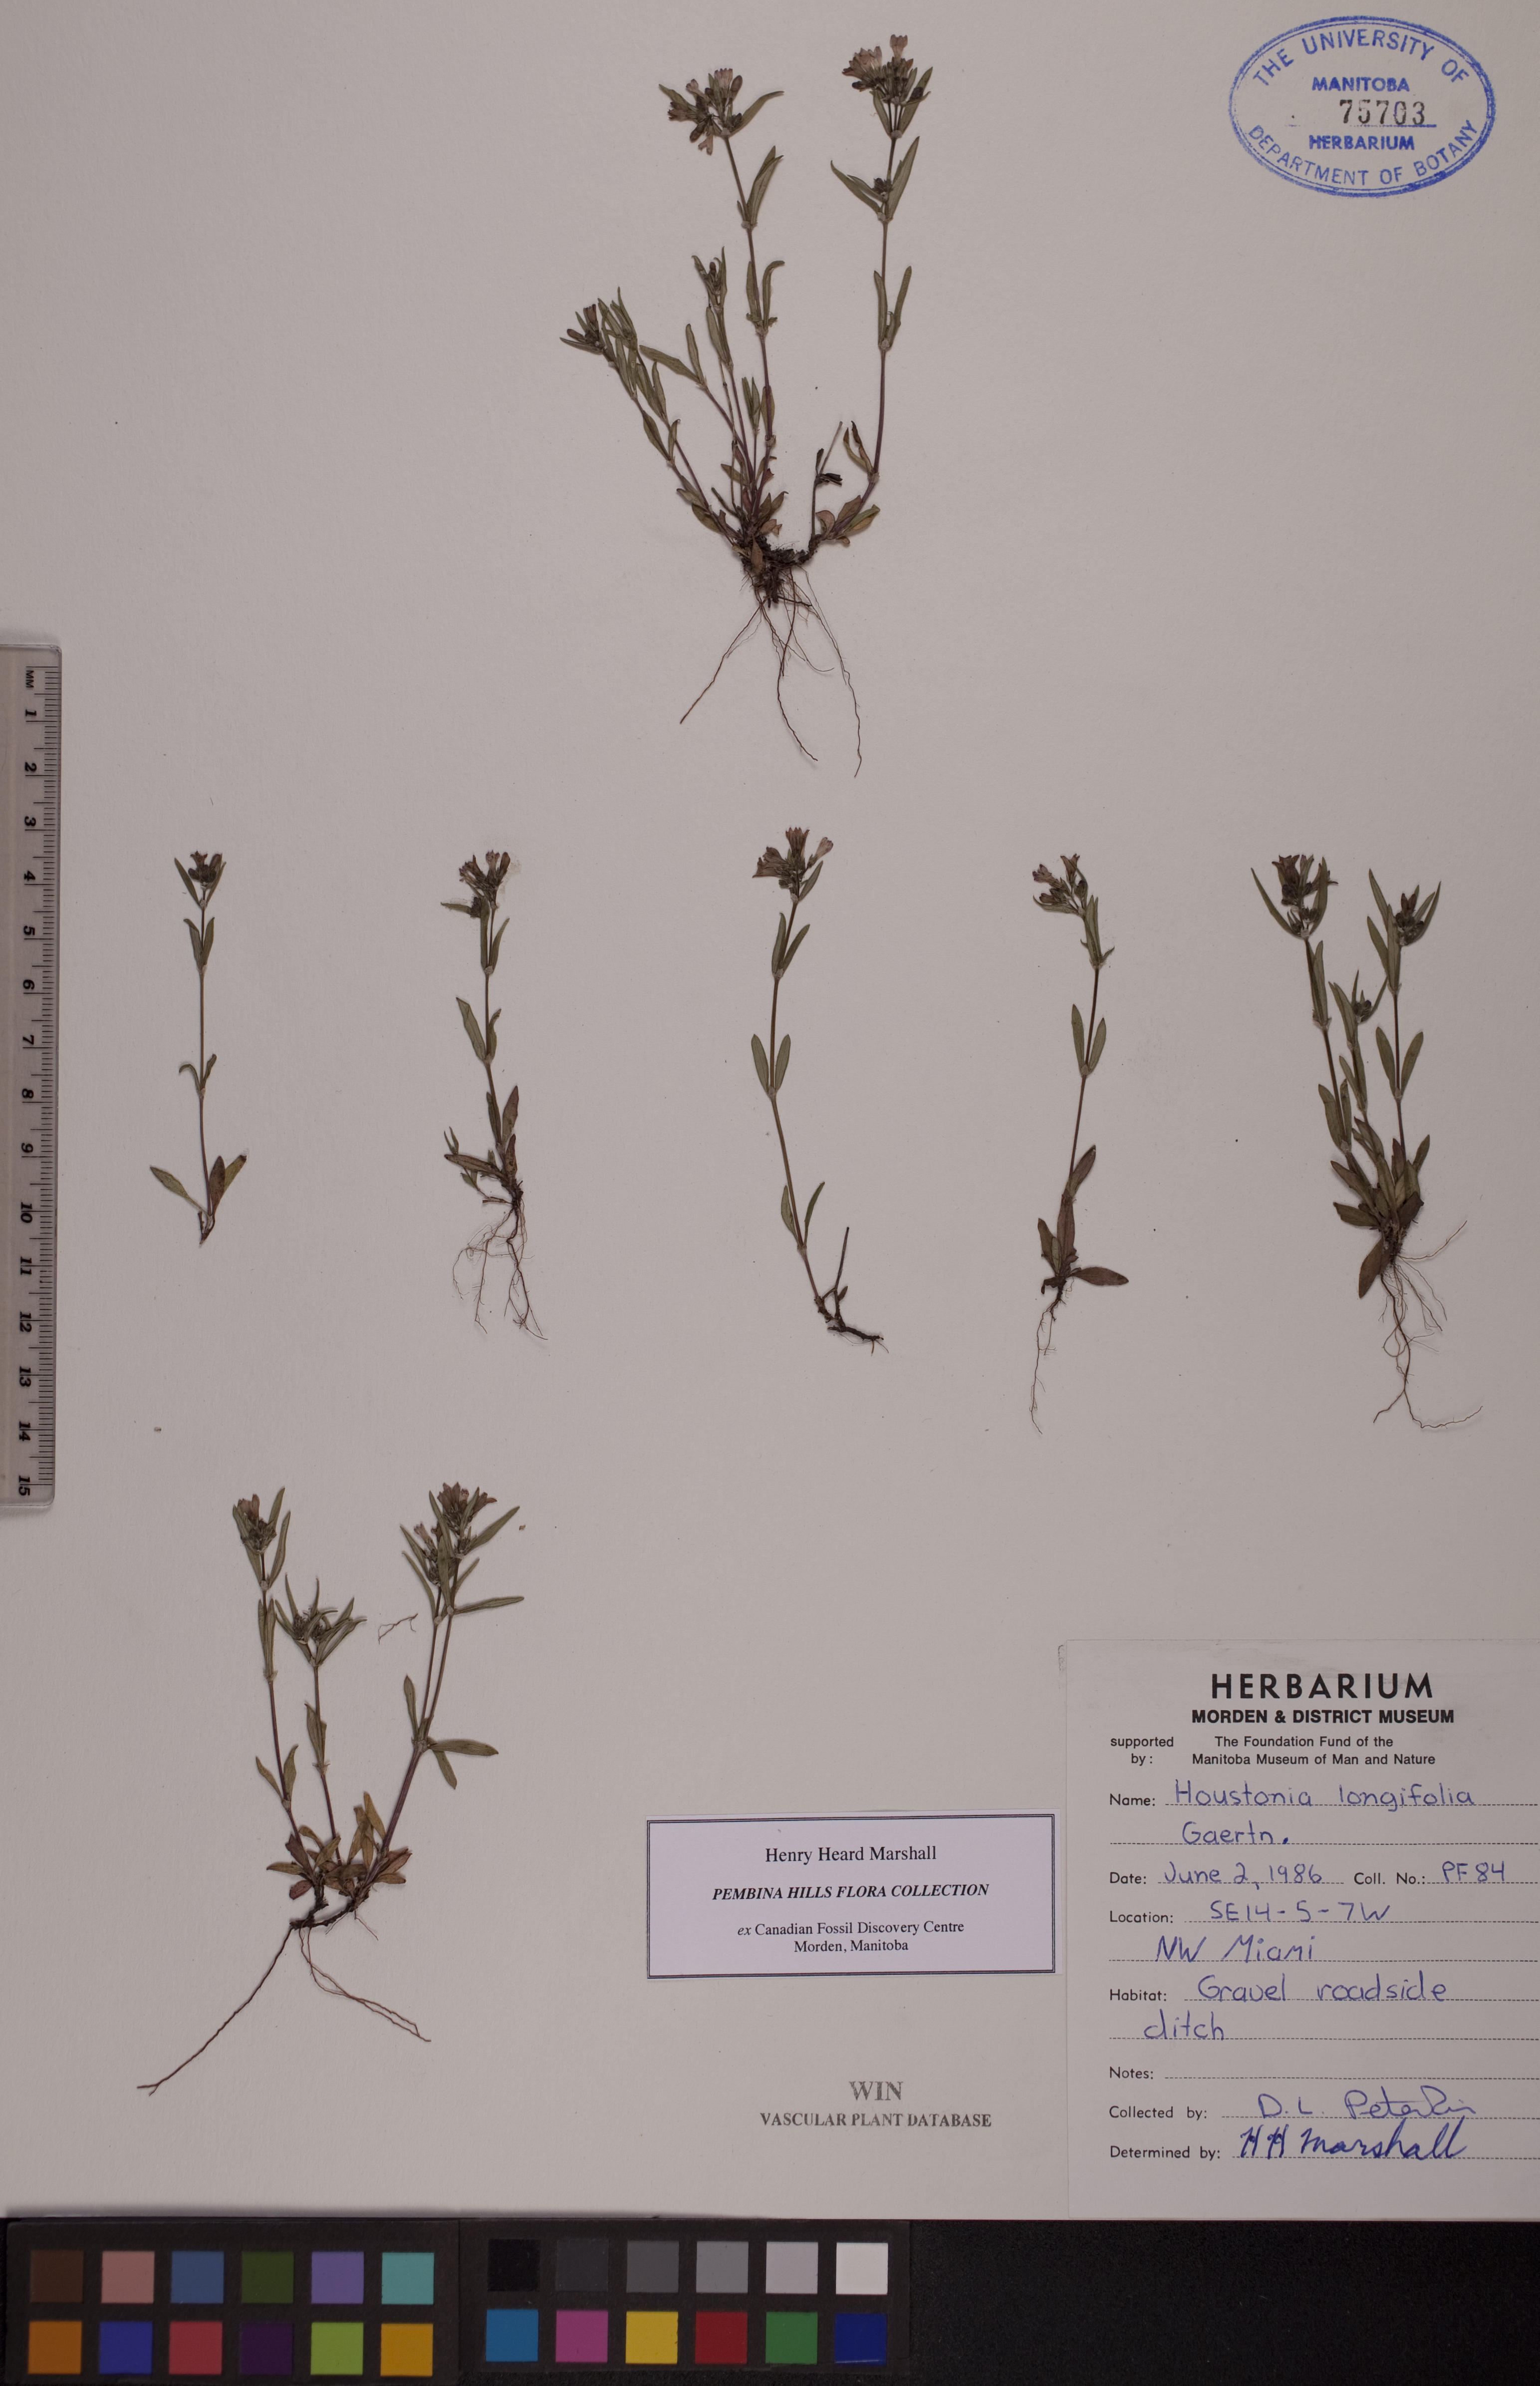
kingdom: Plantae
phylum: Tracheophyta
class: Magnoliopsida
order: Gentianales
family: Rubiaceae
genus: Houstonia
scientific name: Houstonia longifolia
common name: Long-leaved bluets
